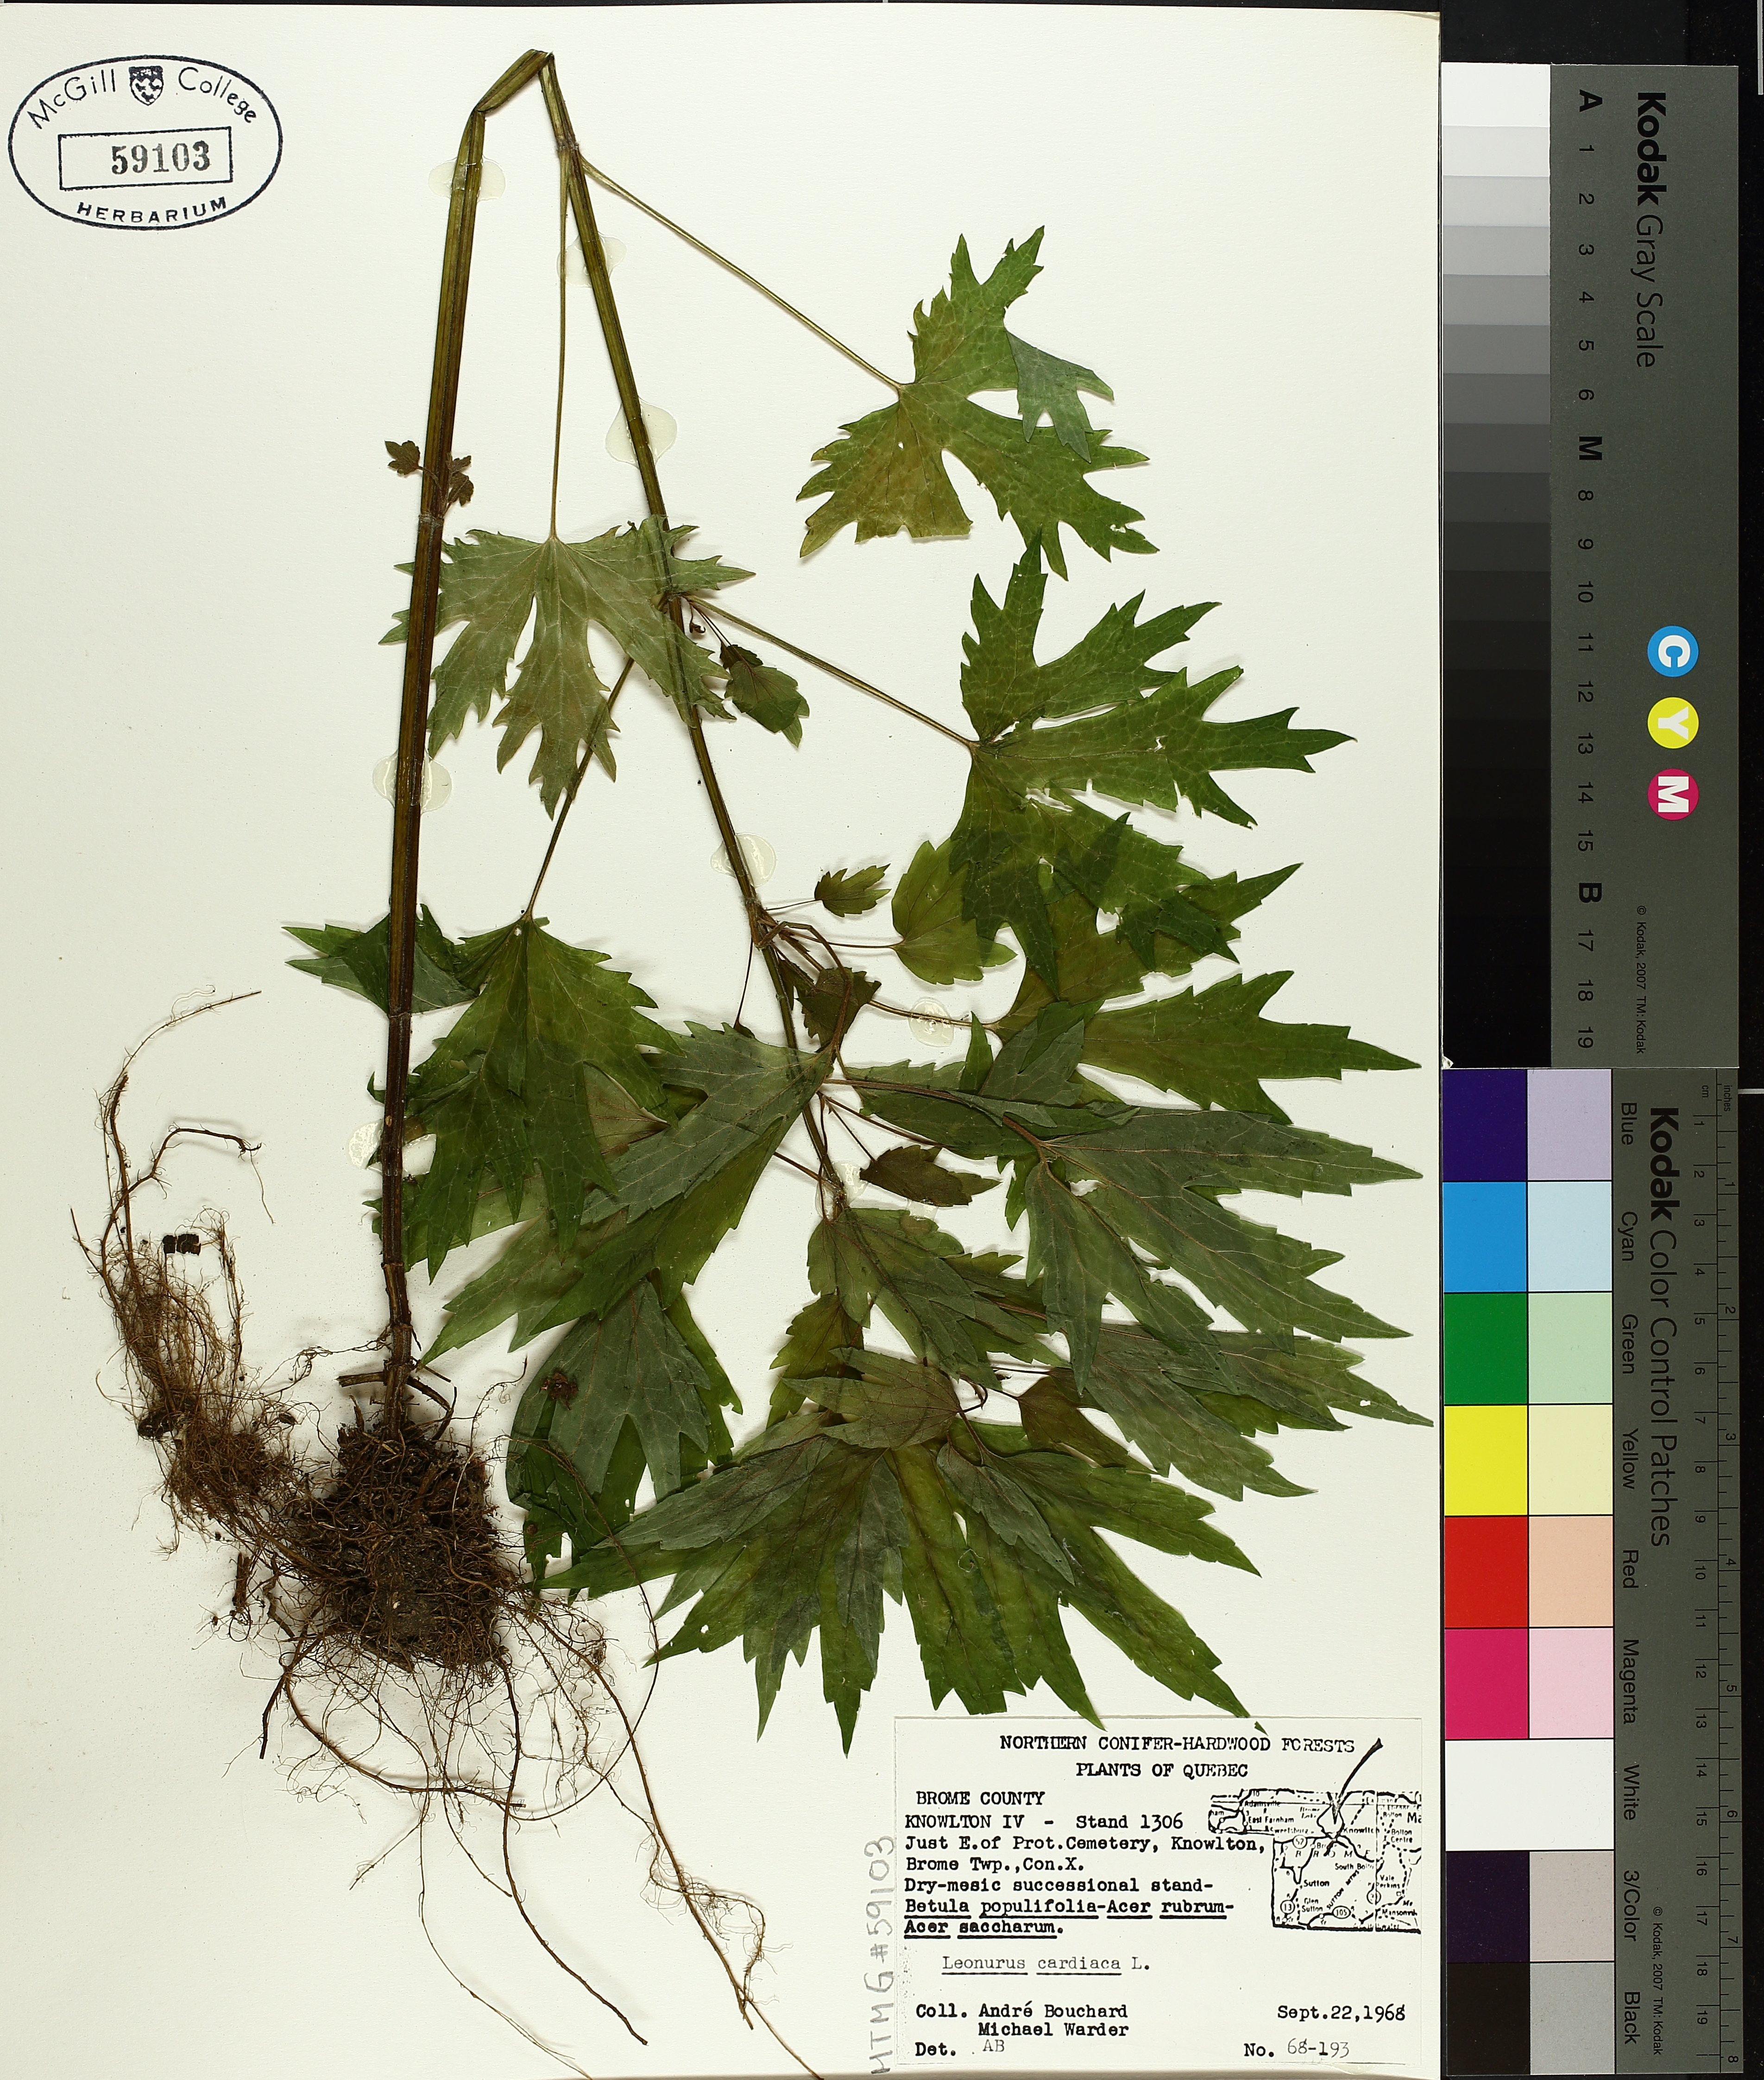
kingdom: Plantae
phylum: Tracheophyta
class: Magnoliopsida
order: Lamiales
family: Lamiaceae
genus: Leonurus
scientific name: Leonurus cardiaca
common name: Motherwort
